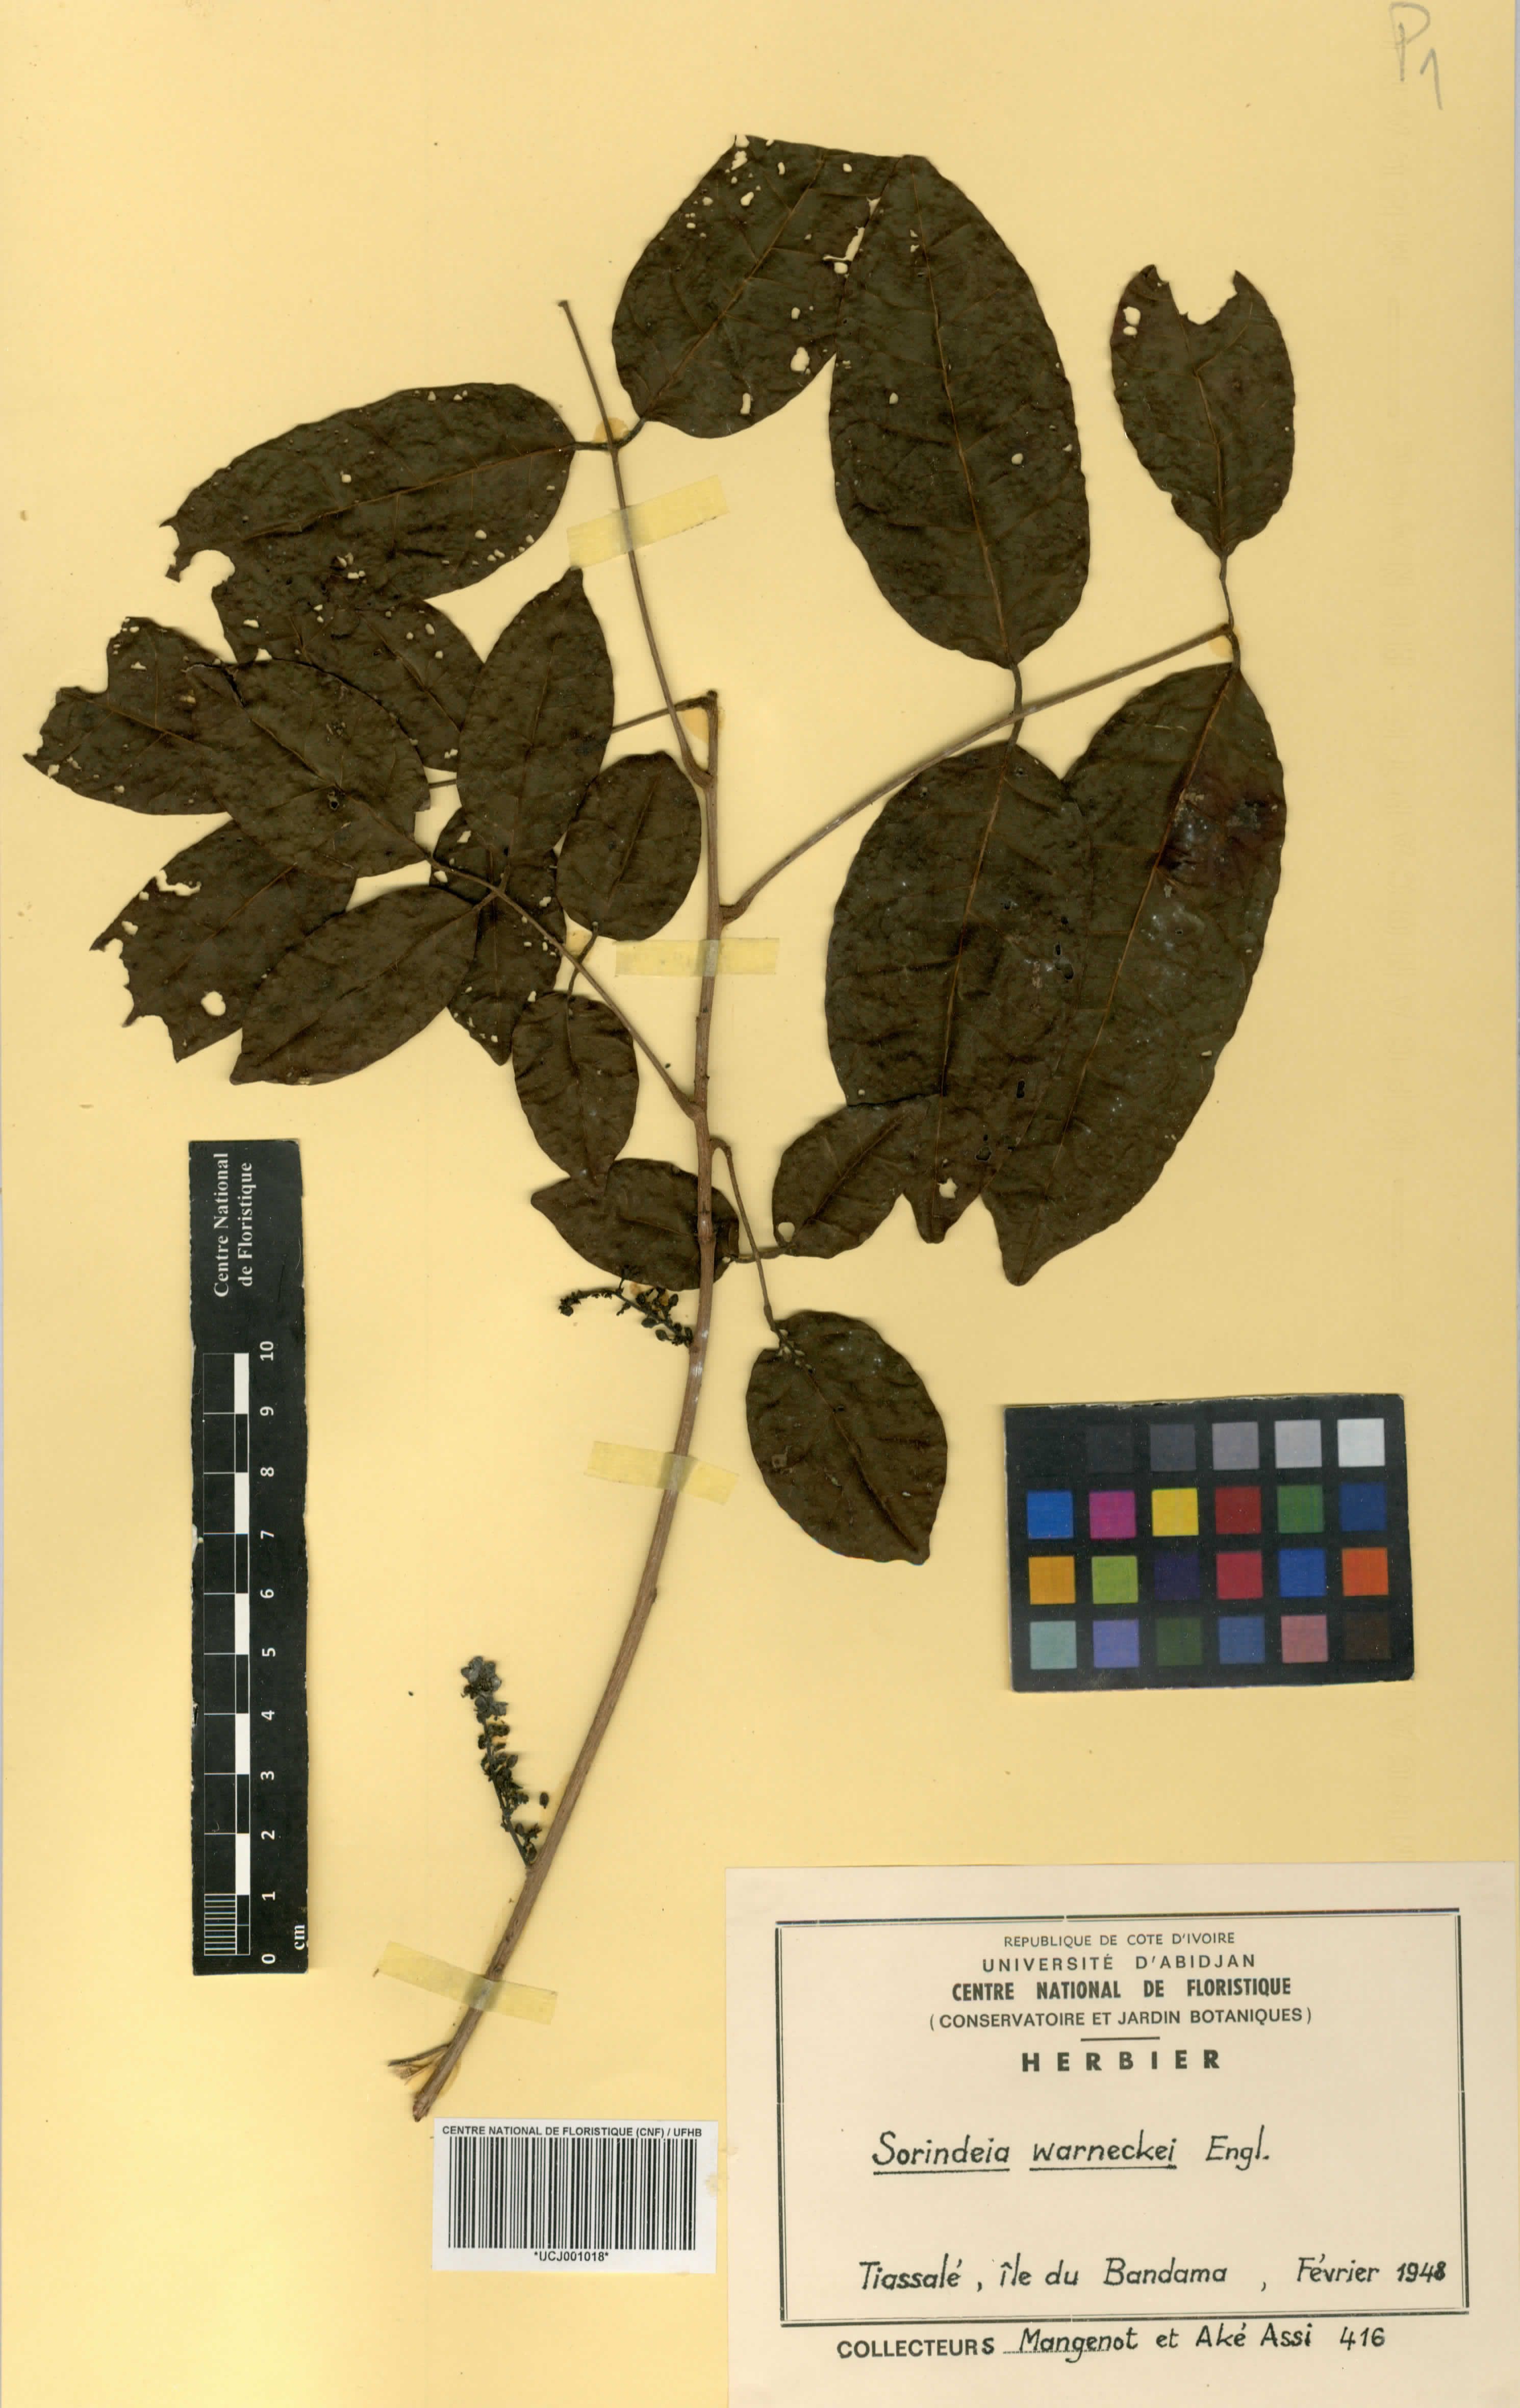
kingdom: Plantae
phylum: Tracheophyta
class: Magnoliopsida
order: Sapindales
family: Anacardiaceae
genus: Sorindeia
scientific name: Sorindeia grandifolia
